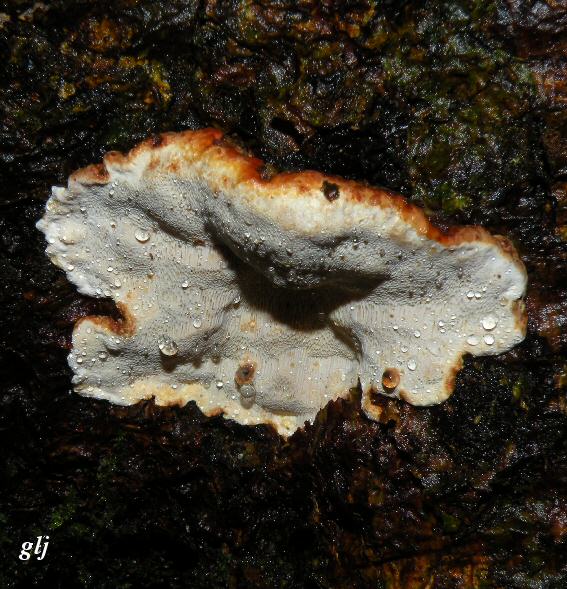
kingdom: Fungi
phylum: Basidiomycota
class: Agaricomycetes
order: Russulales
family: Bondarzewiaceae
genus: Heterobasidion
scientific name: Heterobasidion annosum
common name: almindelig rodfordærver
